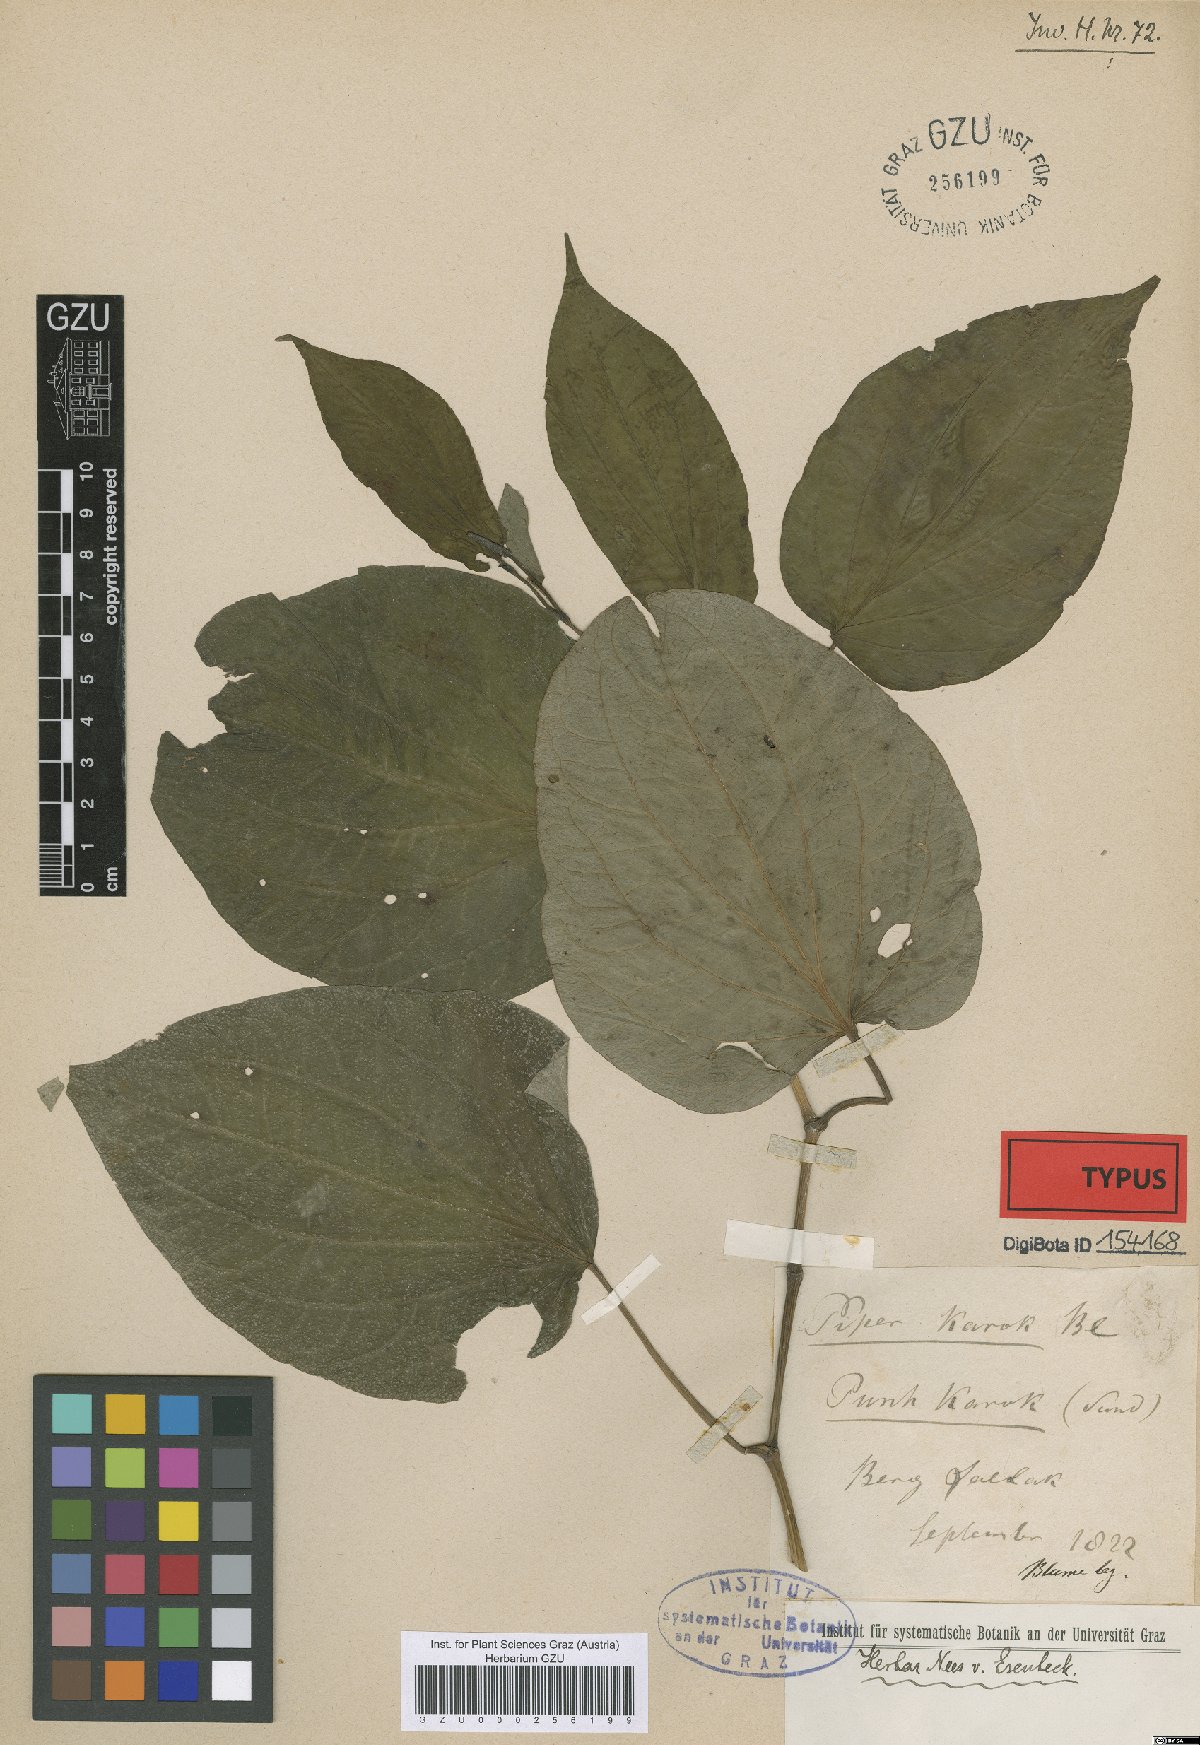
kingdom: Plantae
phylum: Tracheophyta
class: Magnoliopsida
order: Piperales
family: Piperaceae
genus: Piper
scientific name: Piper attenuatum
